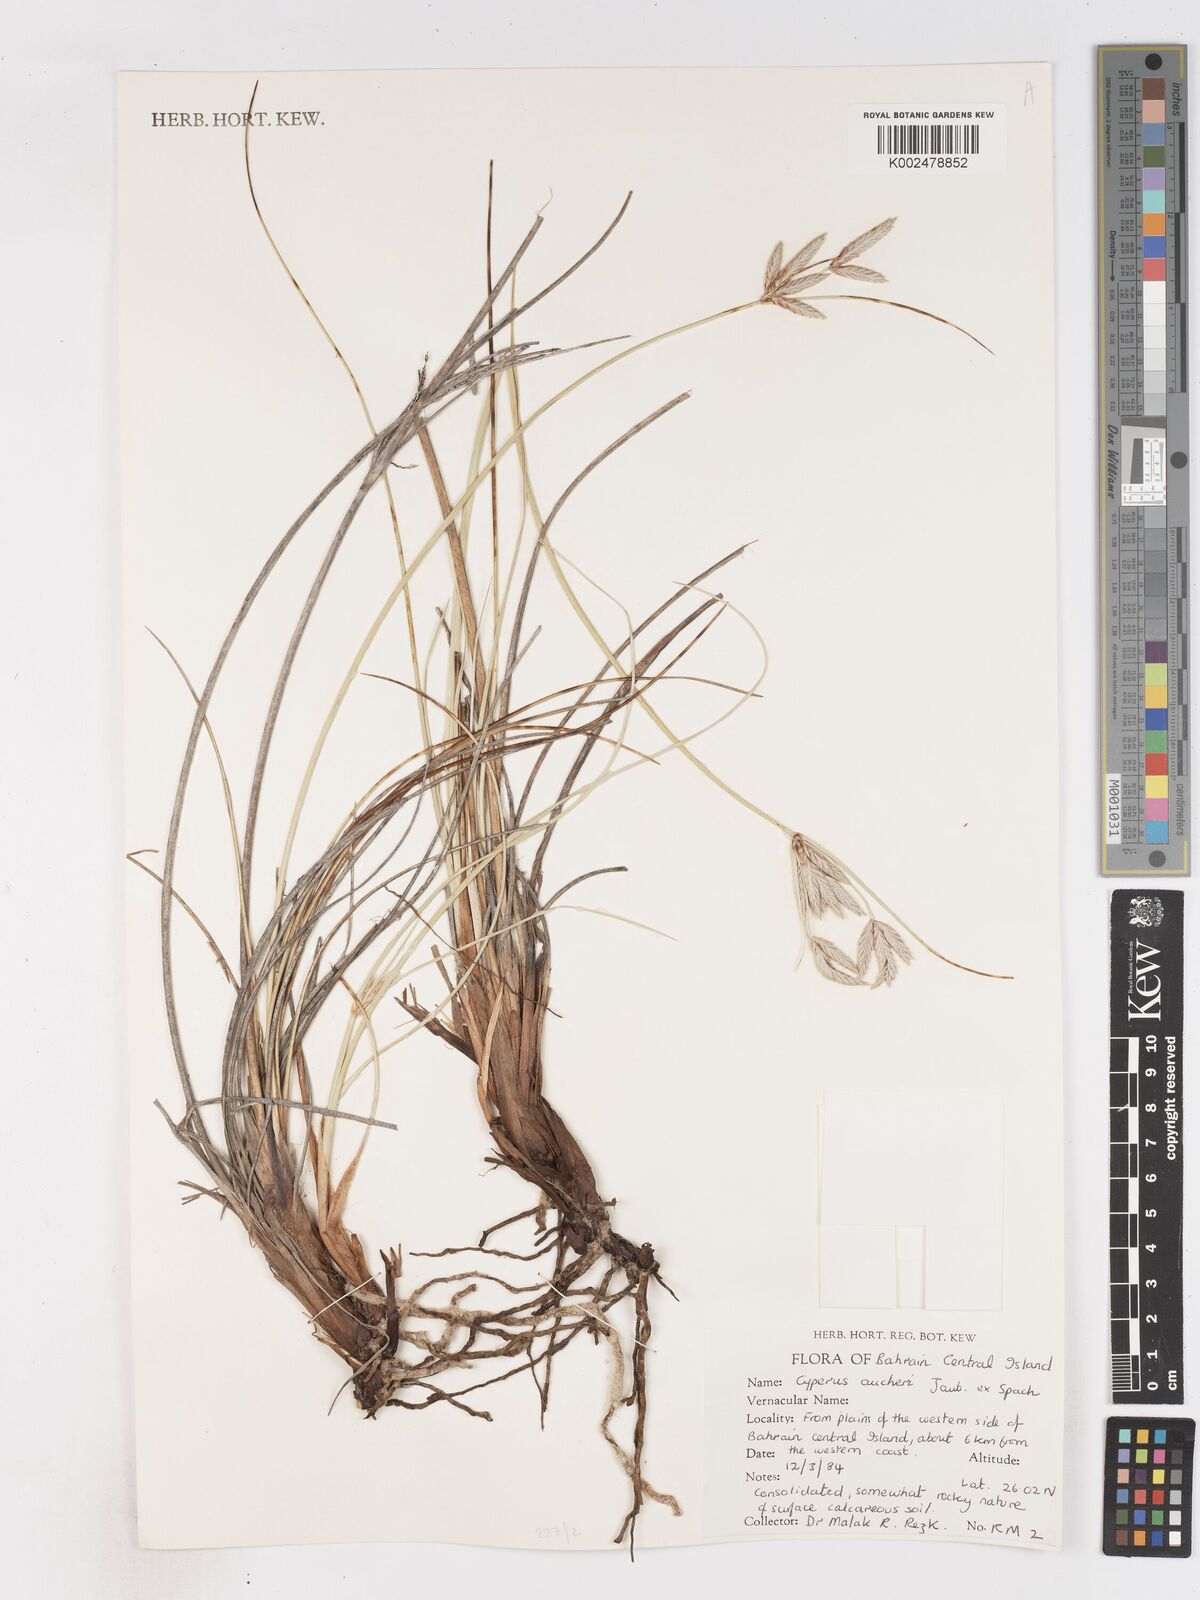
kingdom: Plantae
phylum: Tracheophyta
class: Liliopsida
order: Poales
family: Cyperaceae
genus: Cyperus
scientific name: Cyperus aucheri
